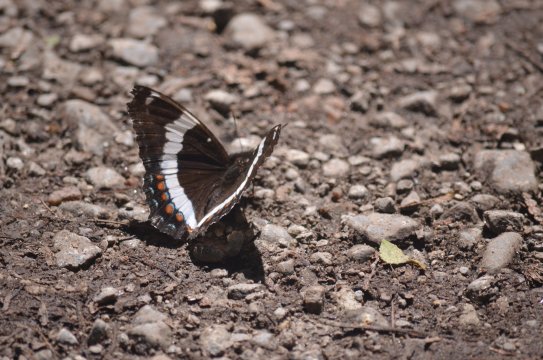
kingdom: Animalia
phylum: Arthropoda
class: Insecta
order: Lepidoptera
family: Nymphalidae
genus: Limenitis
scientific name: Limenitis arthemis
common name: Red-spotted Admiral
